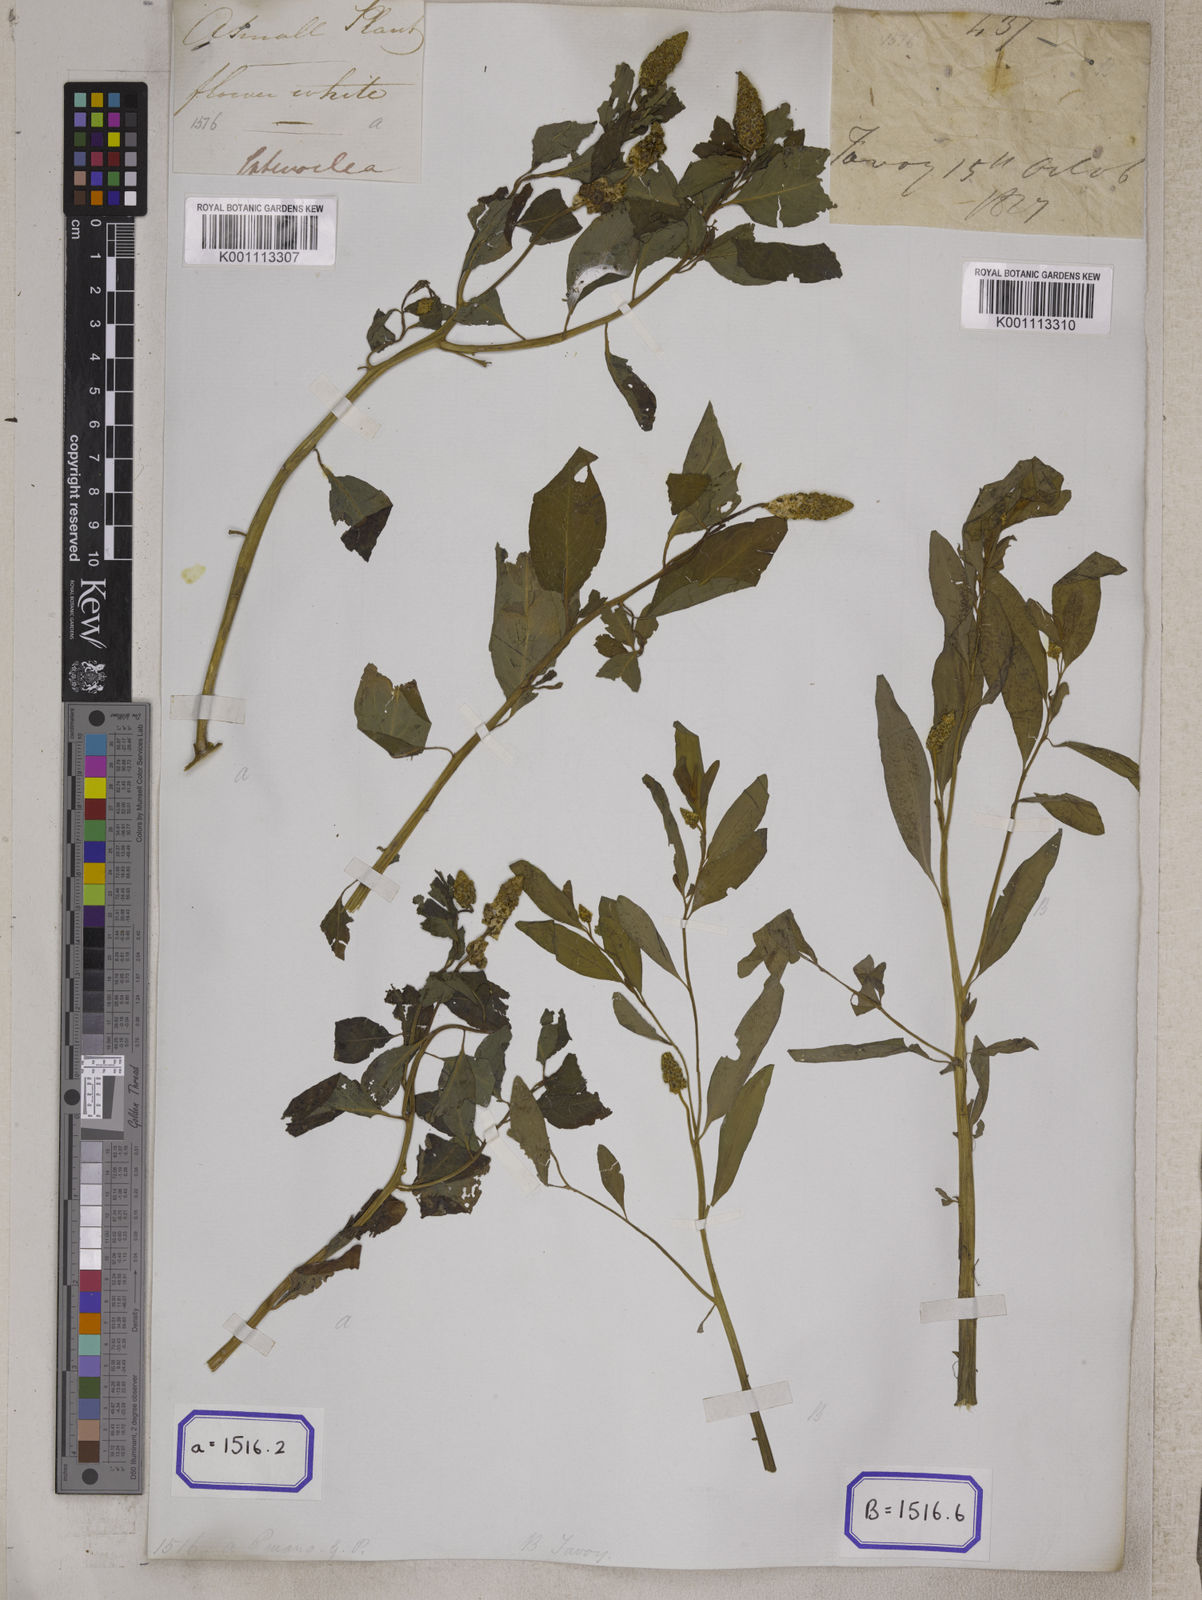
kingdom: Plantae
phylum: Tracheophyta
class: Magnoliopsida
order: Solanales
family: Sphenocleaceae
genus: Sphenoclea
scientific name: Sphenoclea
